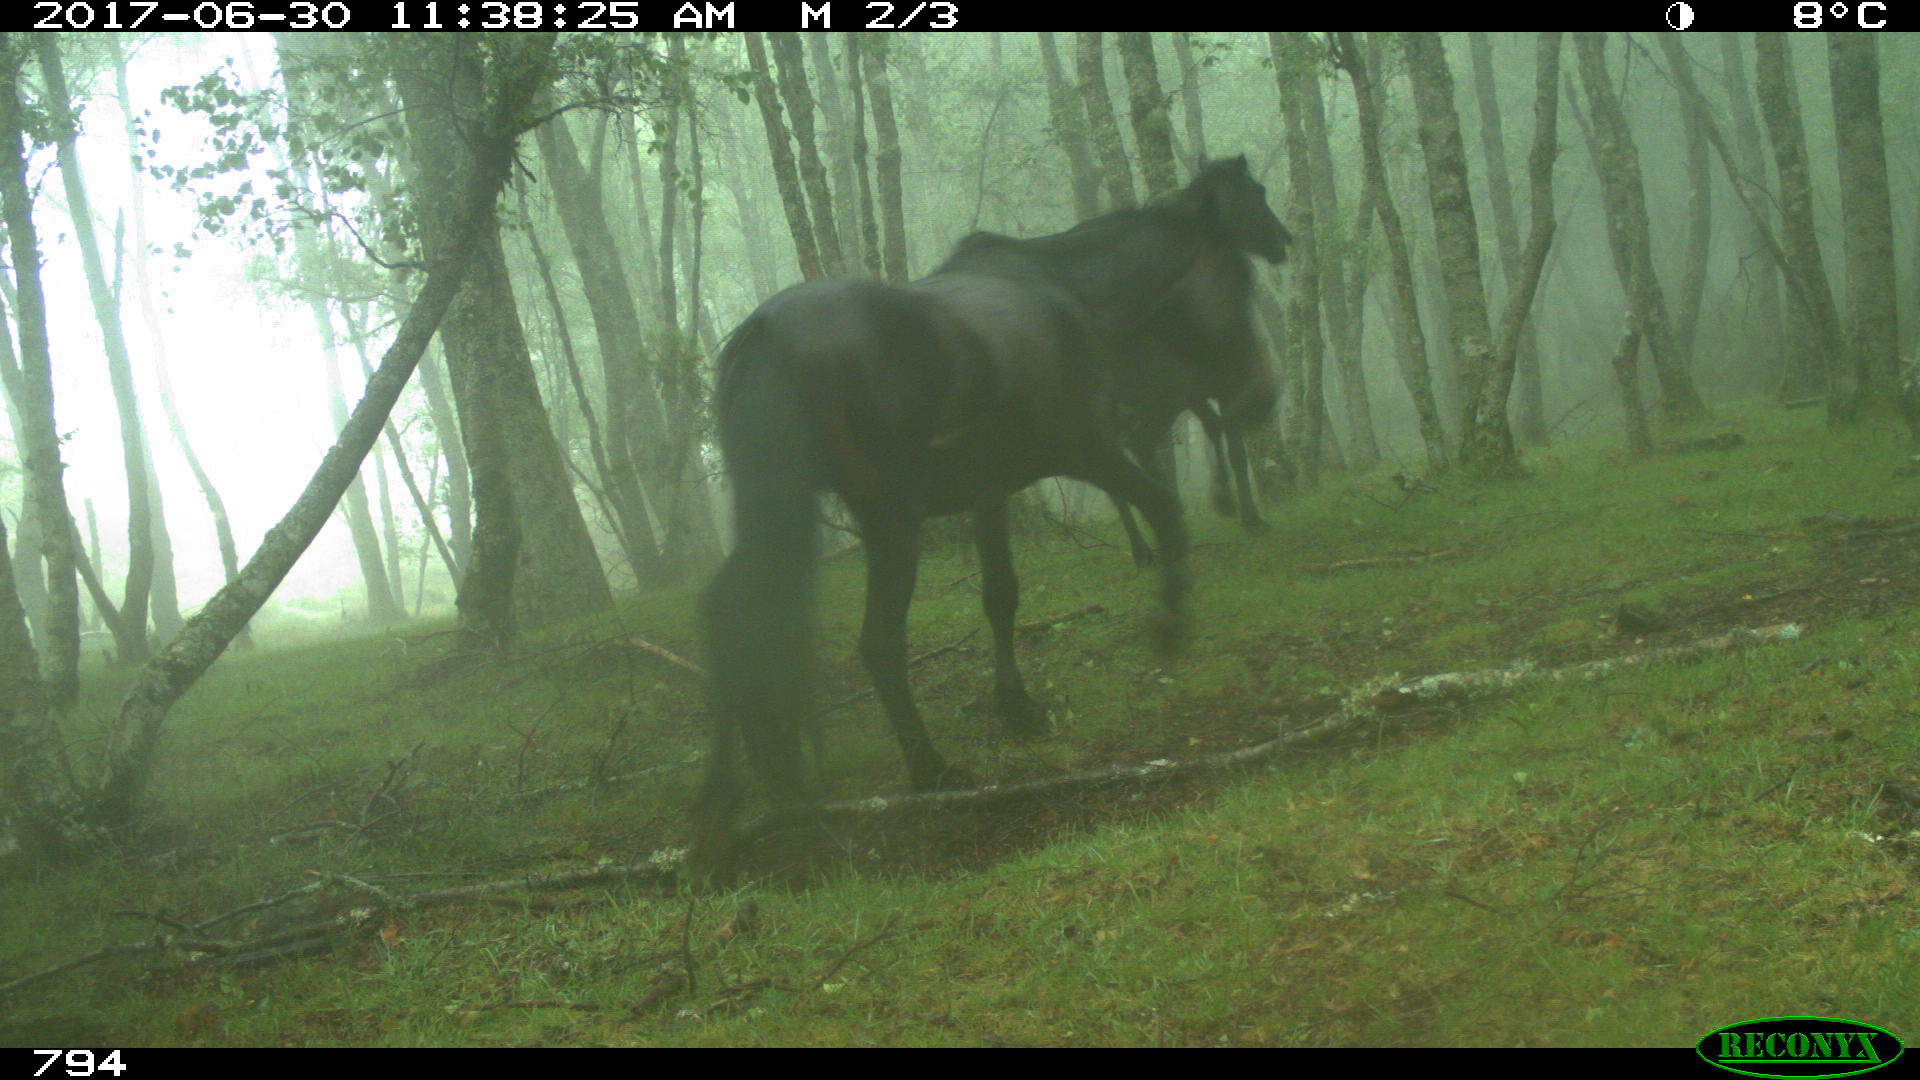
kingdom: Animalia
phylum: Chordata
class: Mammalia
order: Perissodactyla
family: Equidae
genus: Equus
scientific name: Equus caballus
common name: Horse
